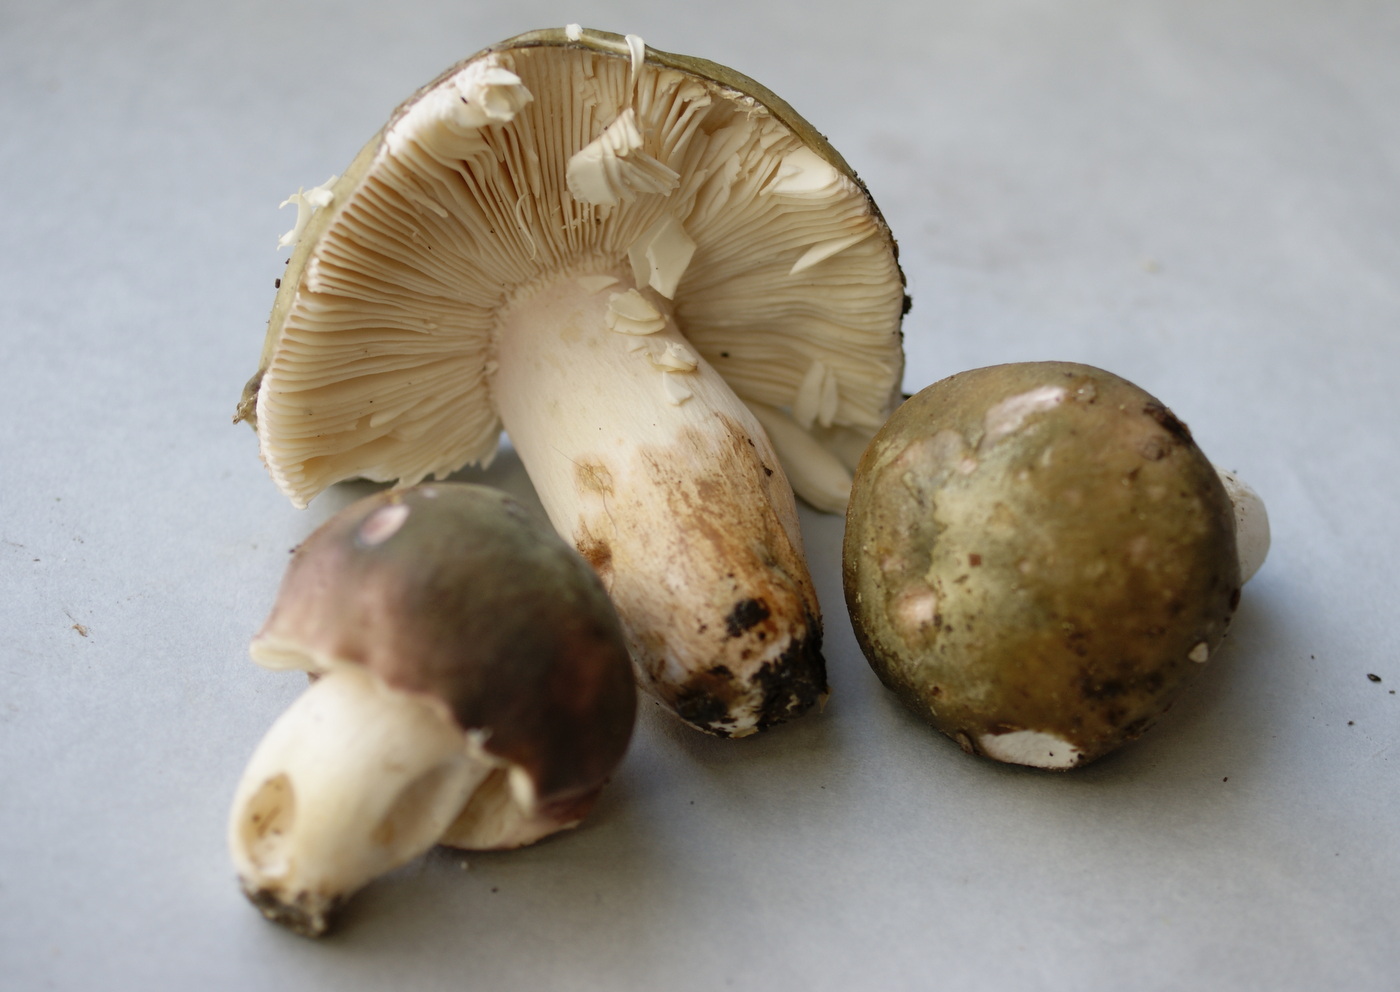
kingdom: Fungi
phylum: Basidiomycota
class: Agaricomycetes
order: Russulales
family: Russulaceae
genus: Russula
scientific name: Russula grisea
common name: grålig skørhat
